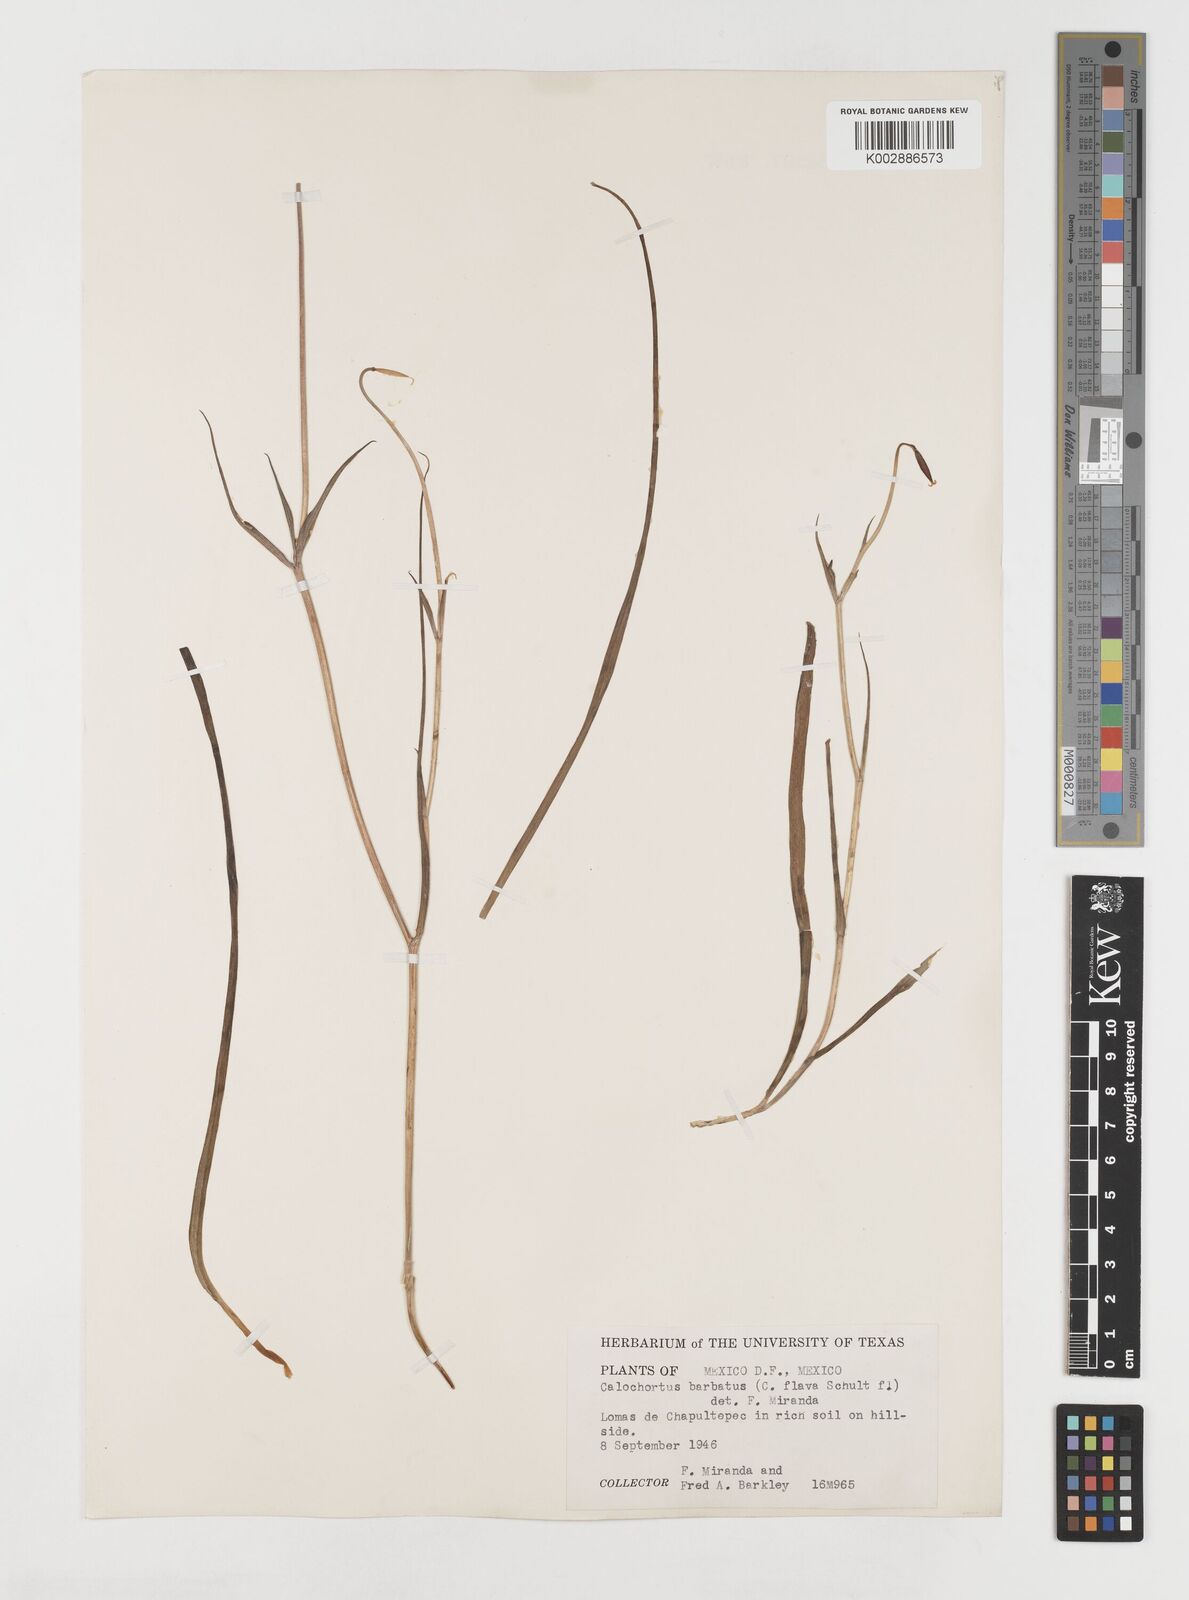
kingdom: Plantae
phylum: Tracheophyta
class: Liliopsida
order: Liliales
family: Liliaceae
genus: Calochortus
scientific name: Calochortus barbatus
